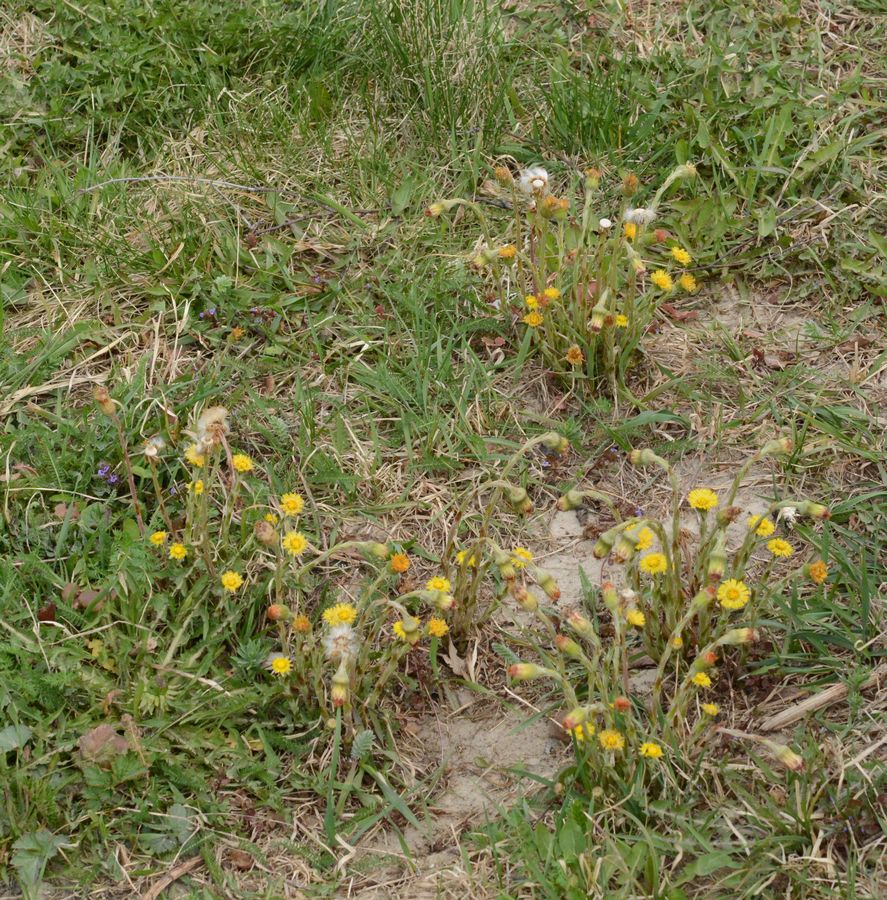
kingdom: Plantae
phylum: Tracheophyta
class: Magnoliopsida
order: Asterales
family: Asteraceae
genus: Tussilago
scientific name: Tussilago farfara
